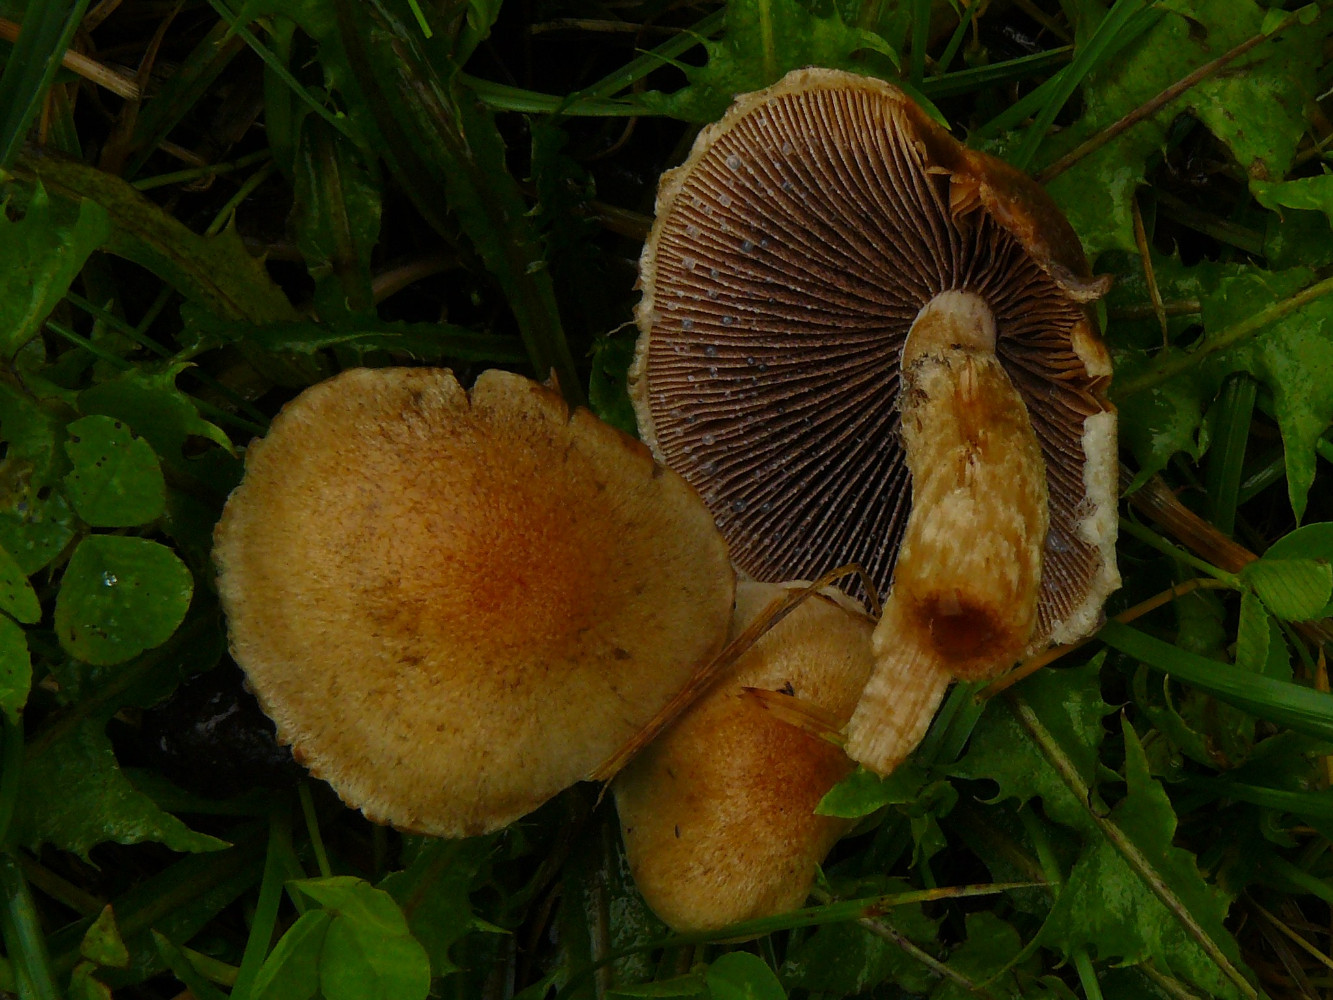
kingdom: Fungi
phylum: Basidiomycota
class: Agaricomycetes
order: Agaricales
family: Psathyrellaceae
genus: Lacrymaria
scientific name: Lacrymaria lacrymabunda
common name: grædende mørkhat
